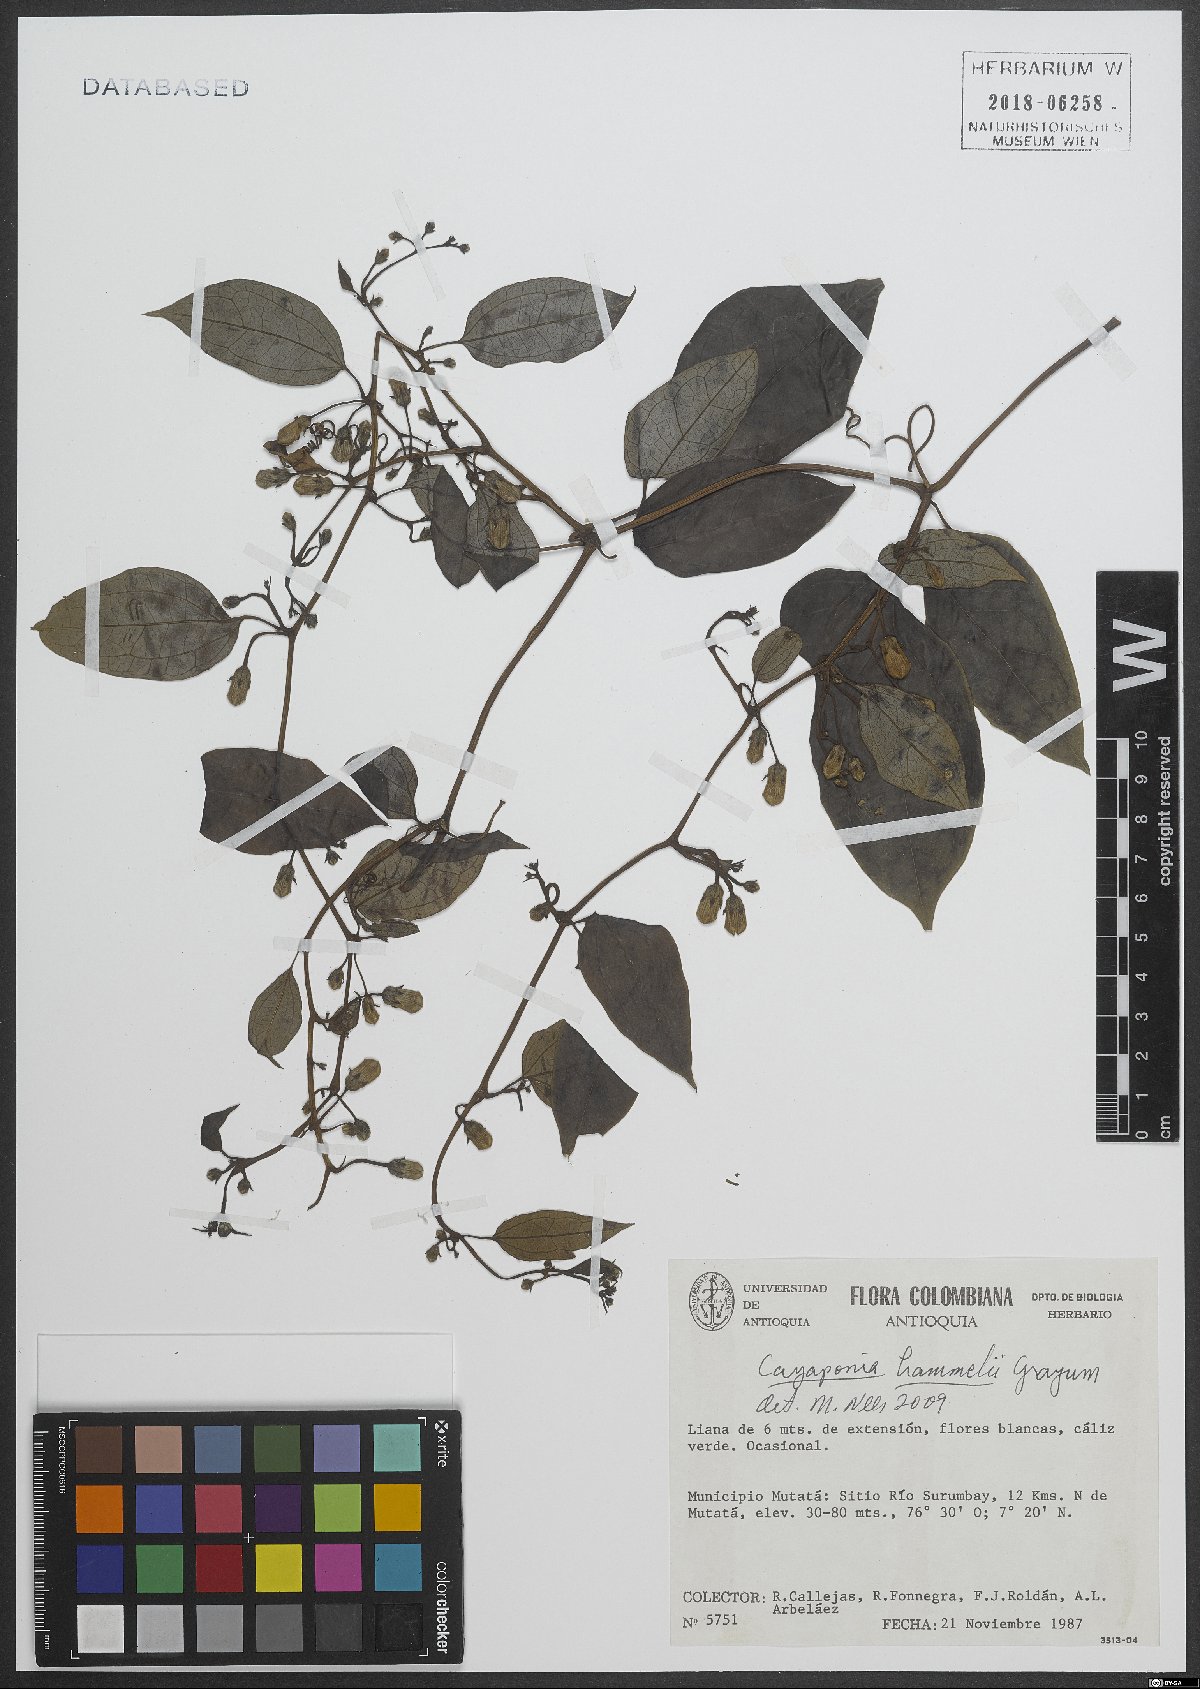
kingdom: Plantae
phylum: Tracheophyta
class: Magnoliopsida
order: Cucurbitales
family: Cucurbitaceae
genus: Cayaponia
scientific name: Cayaponia hammelii
